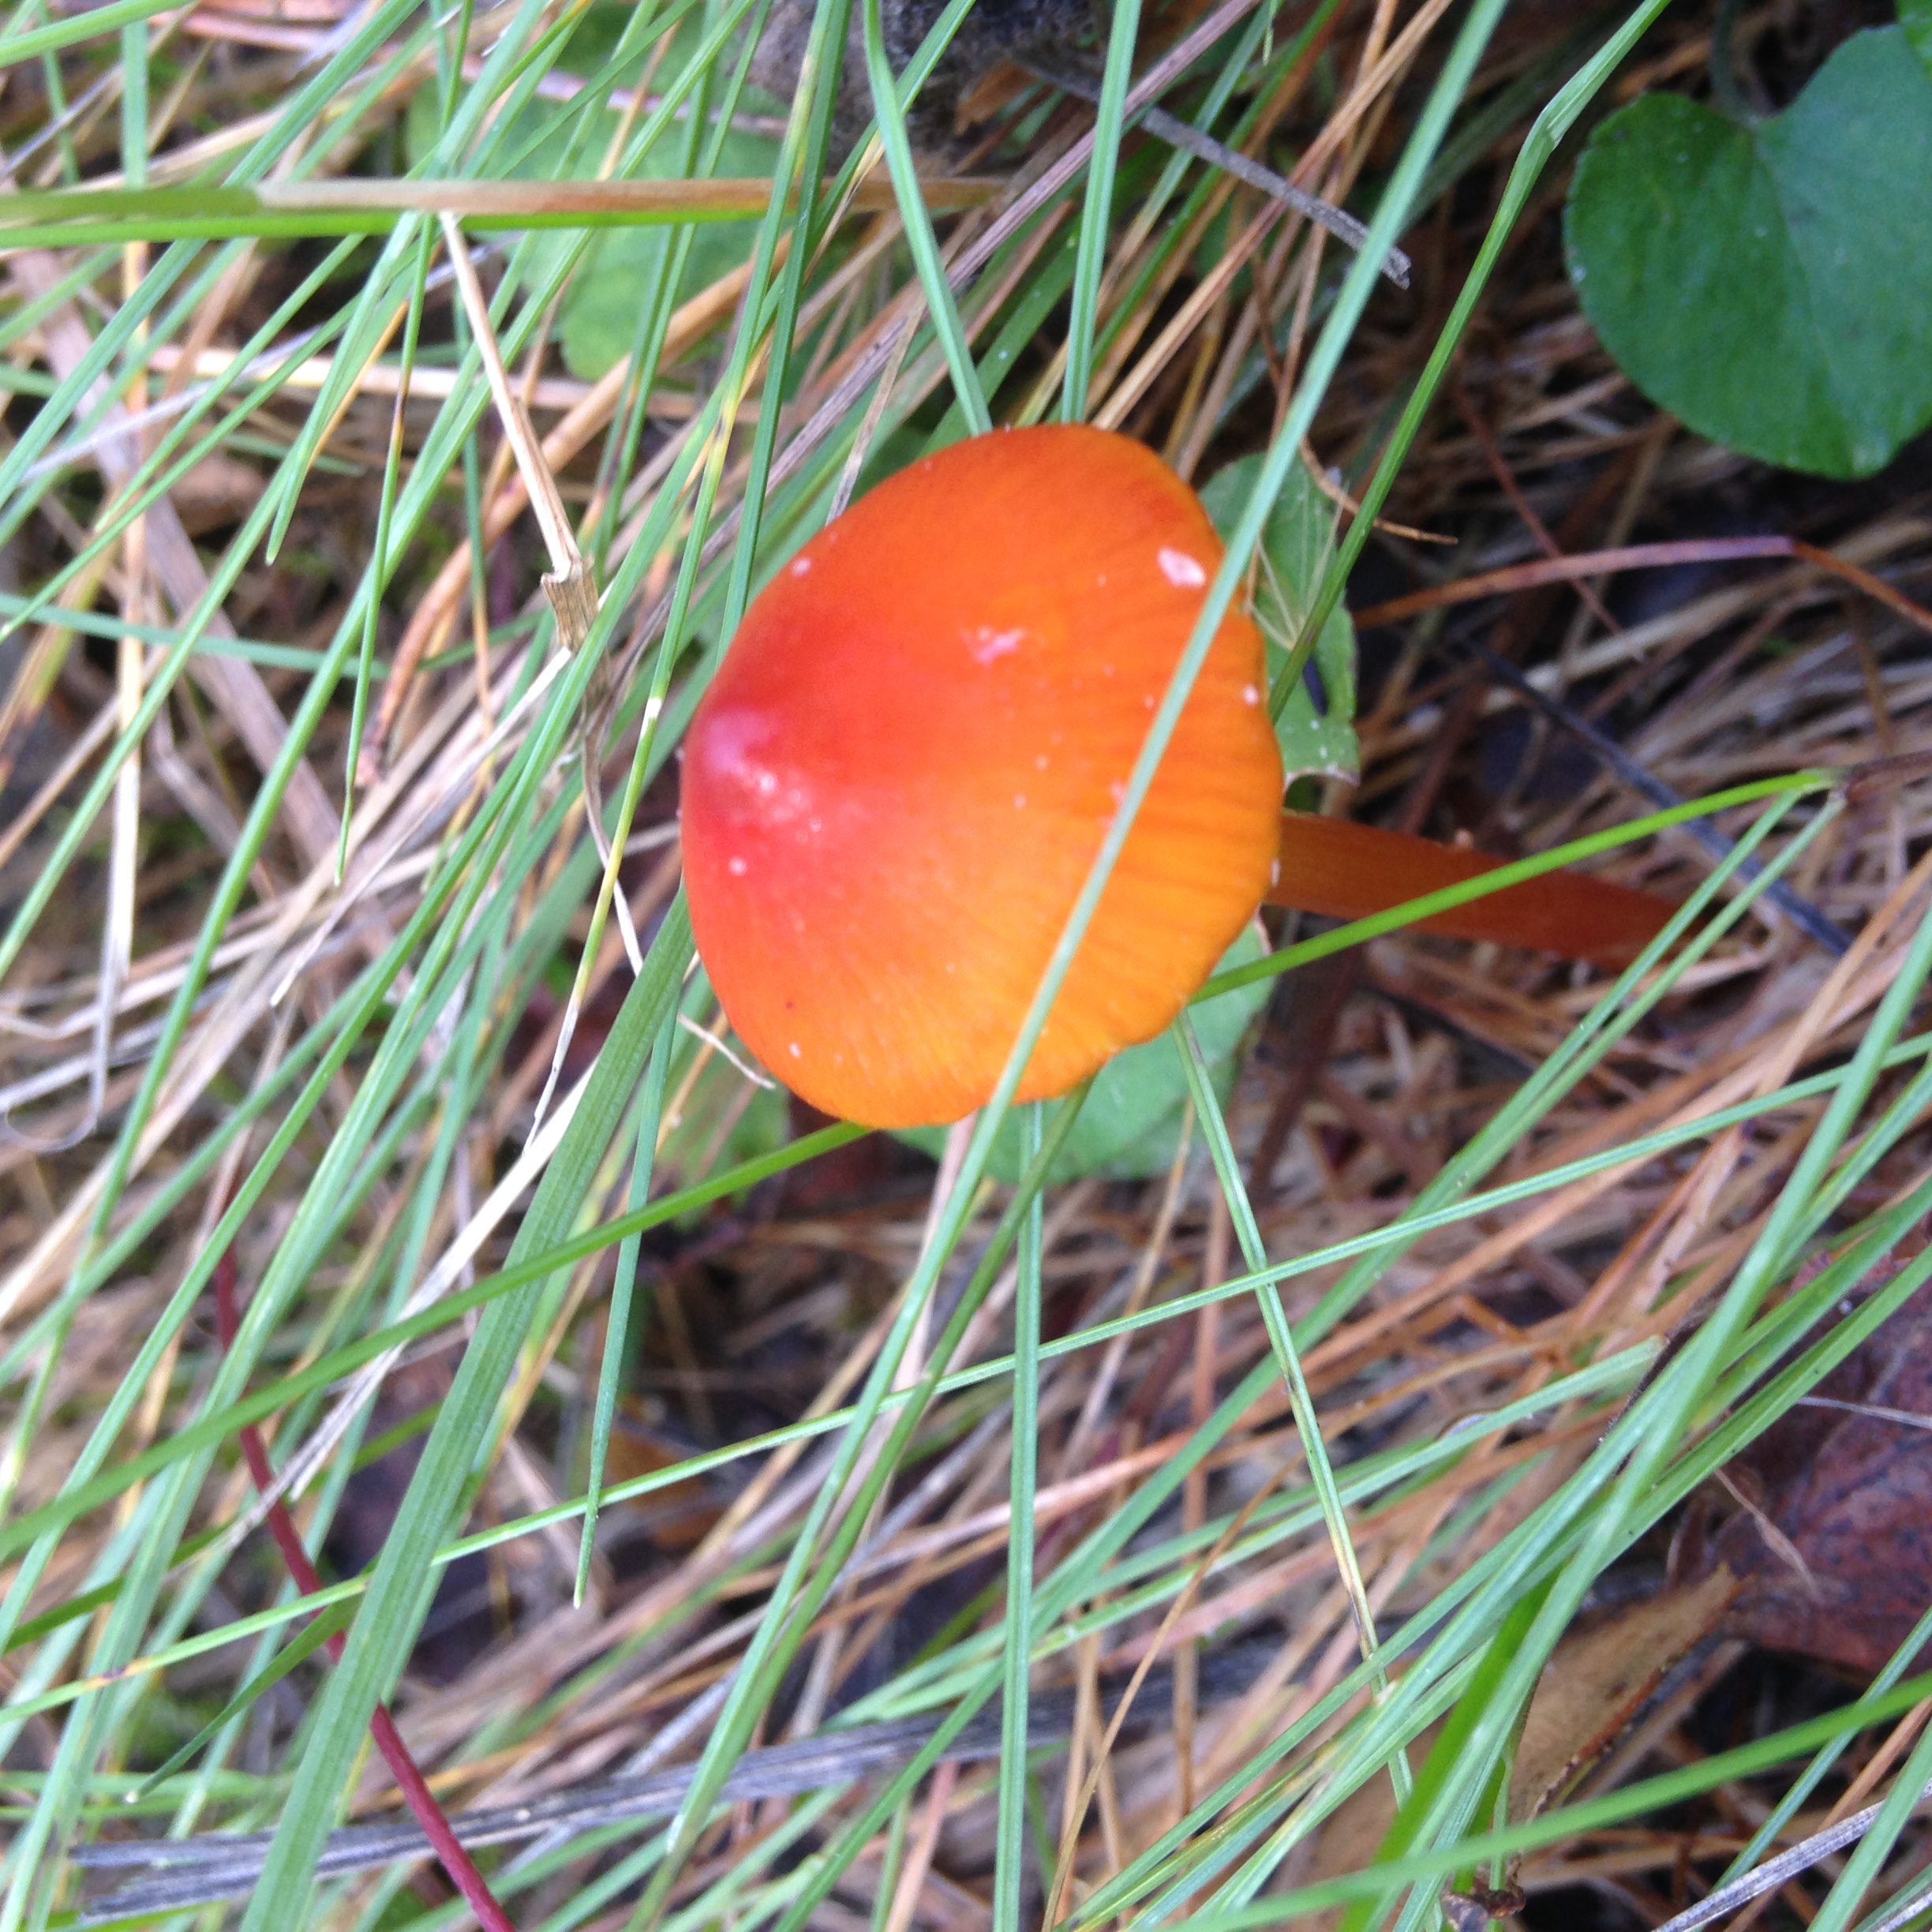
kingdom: Fungi
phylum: Basidiomycota
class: Agaricomycetes
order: Agaricales
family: Hygrophoraceae
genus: Hygrocybe
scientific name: Hygrocybe conica
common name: Blackening wax-cap
